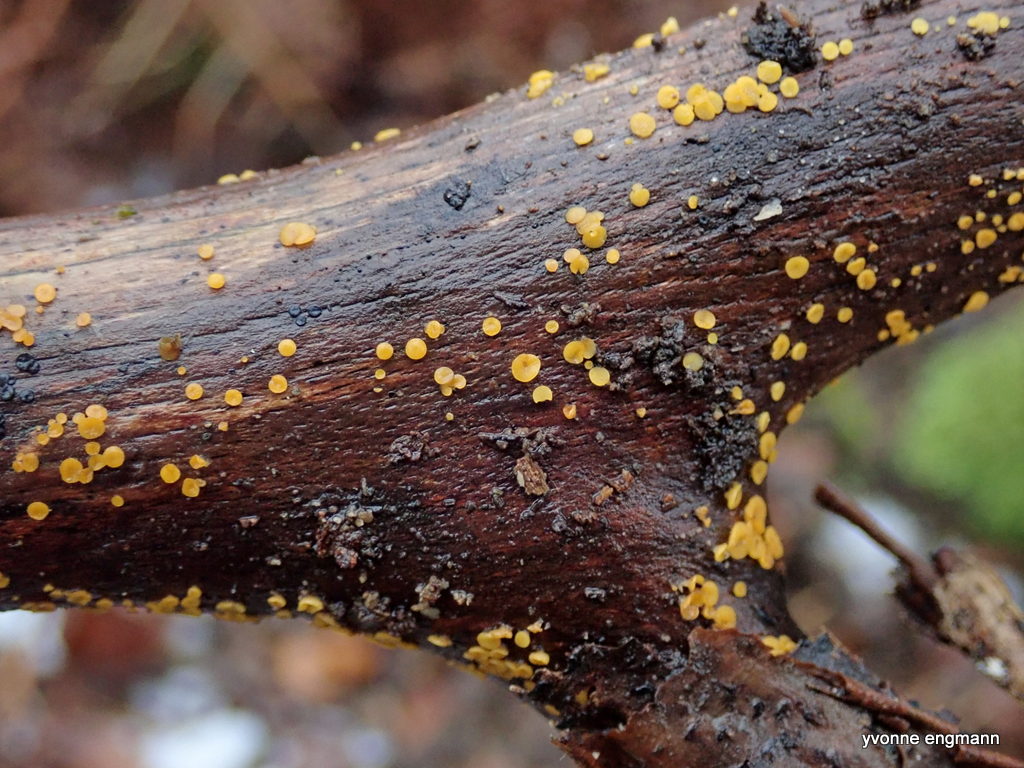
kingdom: Fungi
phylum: Ascomycota
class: Leotiomycetes
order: Helotiales
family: Pezizellaceae
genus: Calycina
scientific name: Calycina citrina
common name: almindelig gulskive
